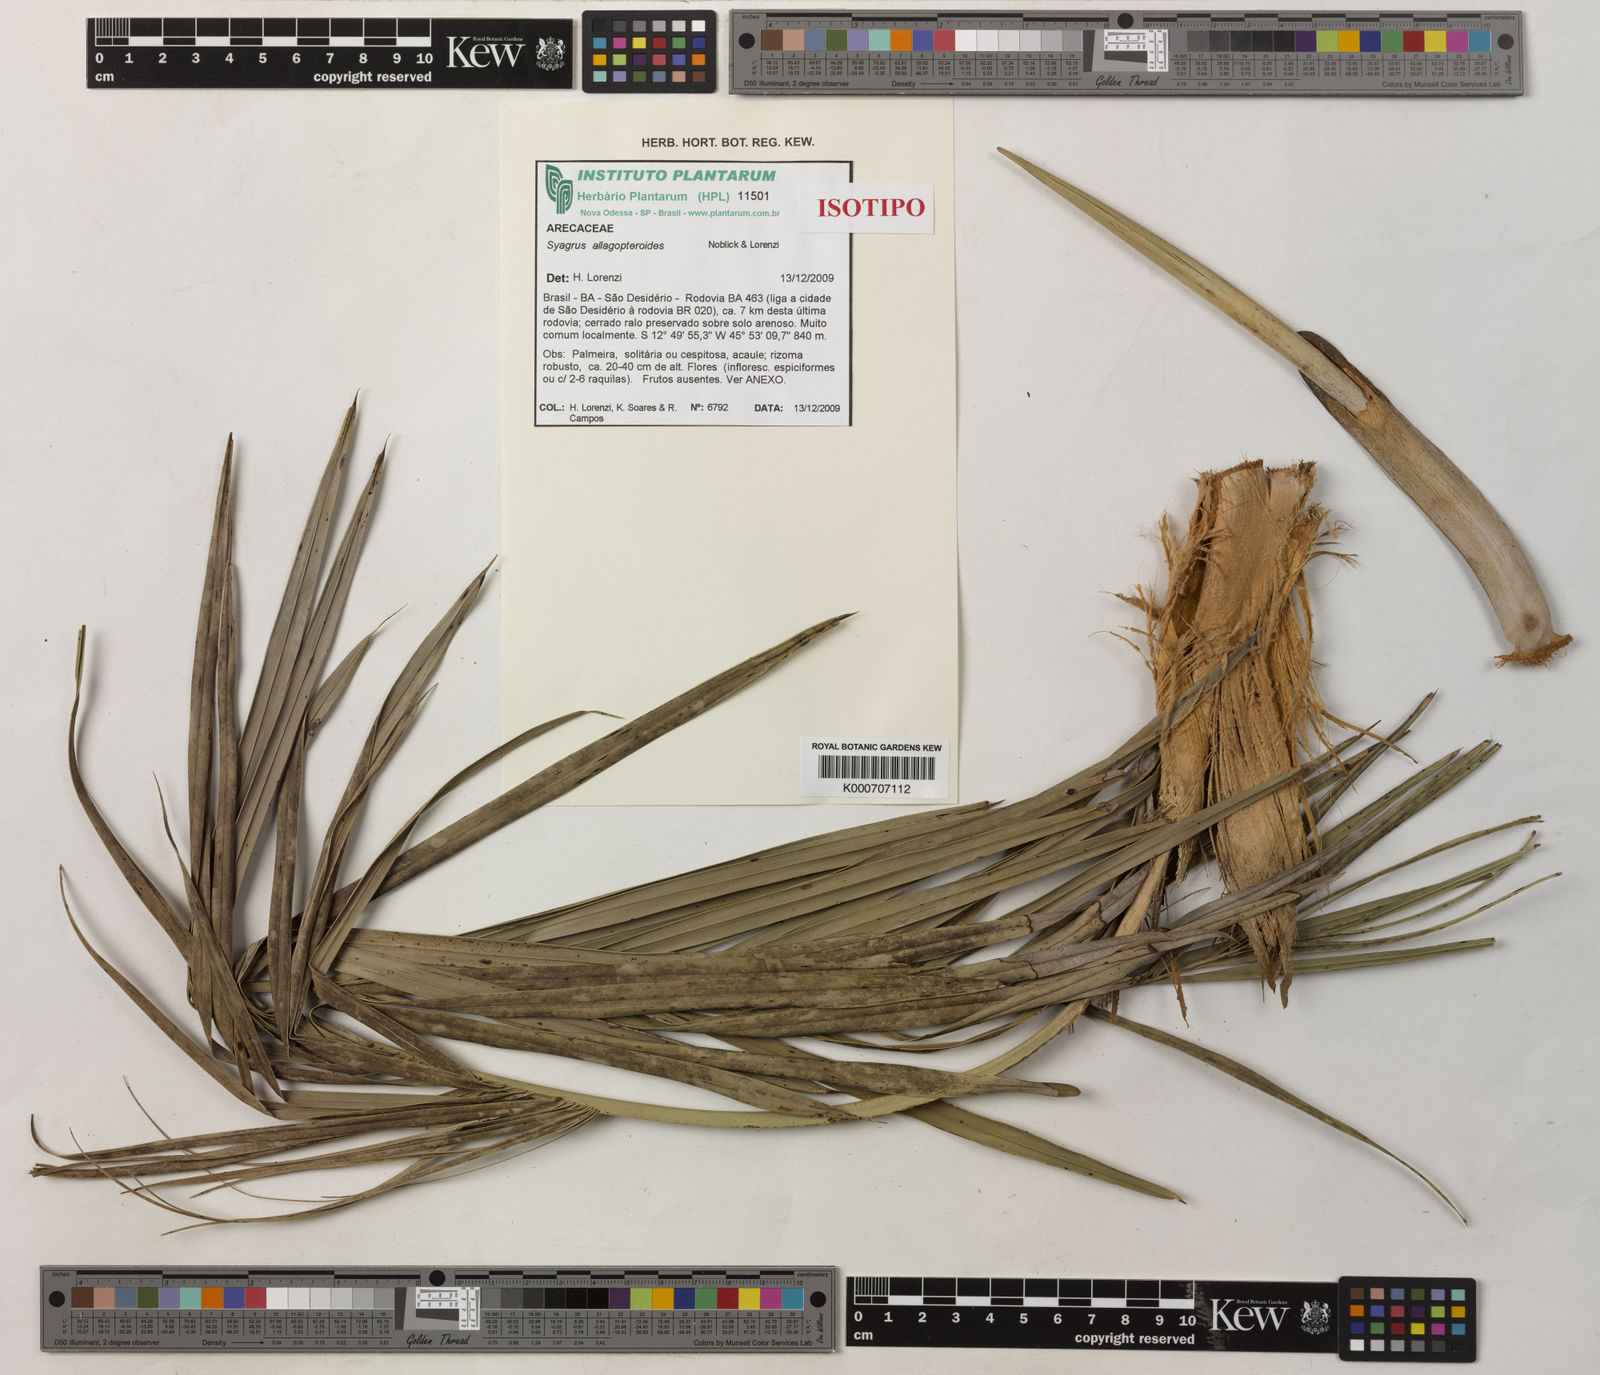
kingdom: Plantae
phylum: Tracheophyta
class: Liliopsida
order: Arecales
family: Arecaceae
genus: Syagrus
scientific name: Syagrus allagopteroides
